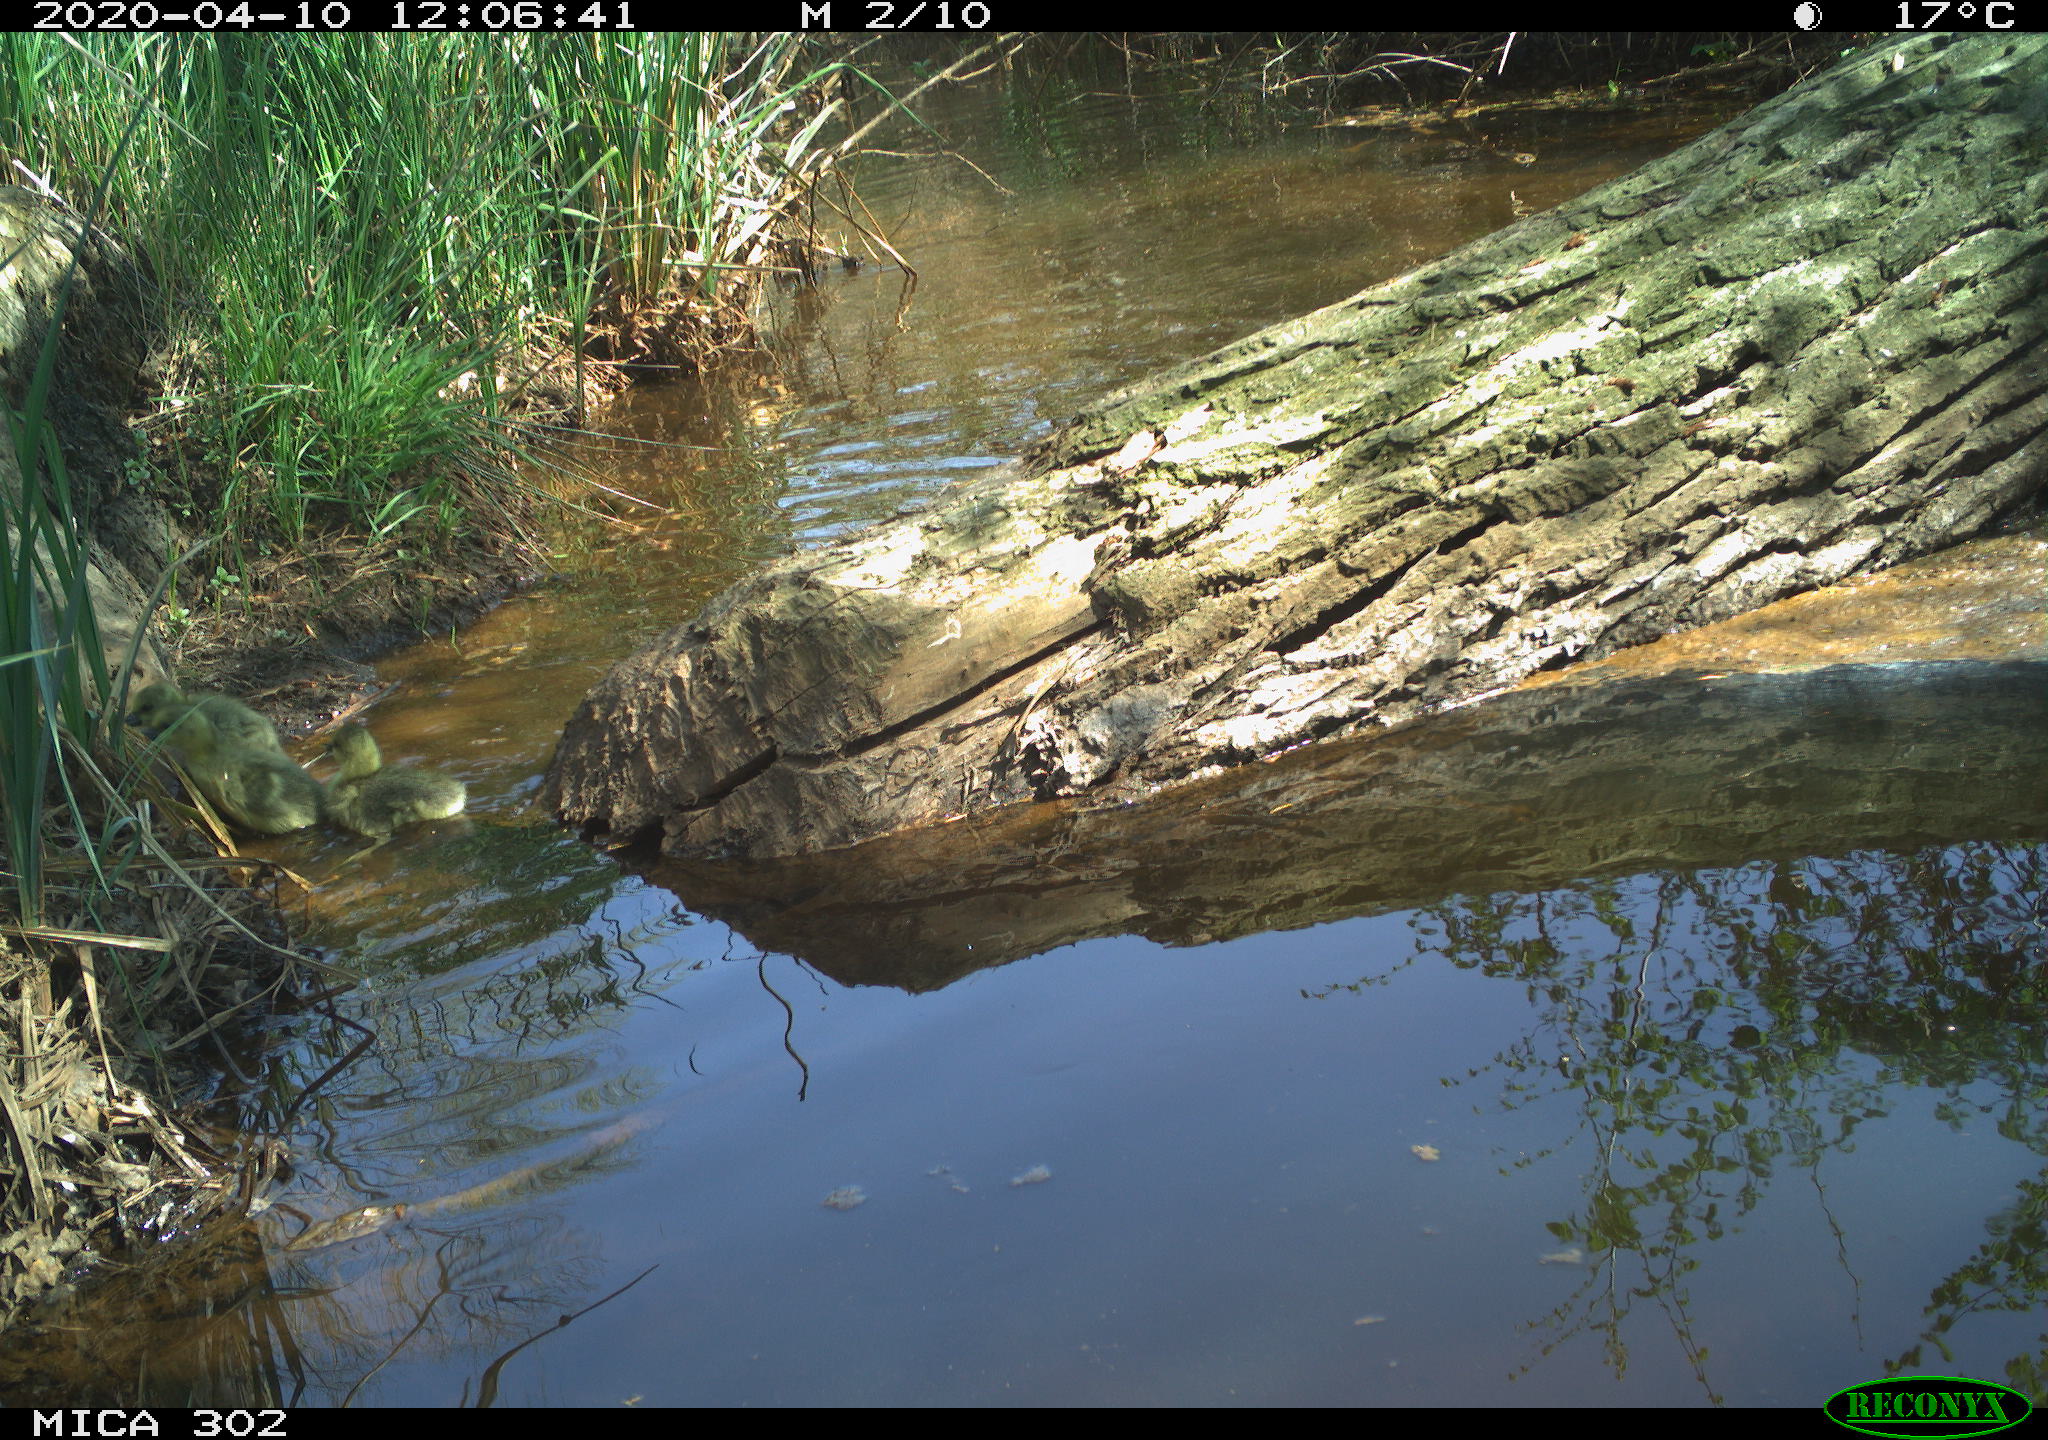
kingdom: Animalia
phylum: Chordata
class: Aves
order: Anseriformes
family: Anatidae
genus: Anser
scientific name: Anser anser
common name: Greylag goose
